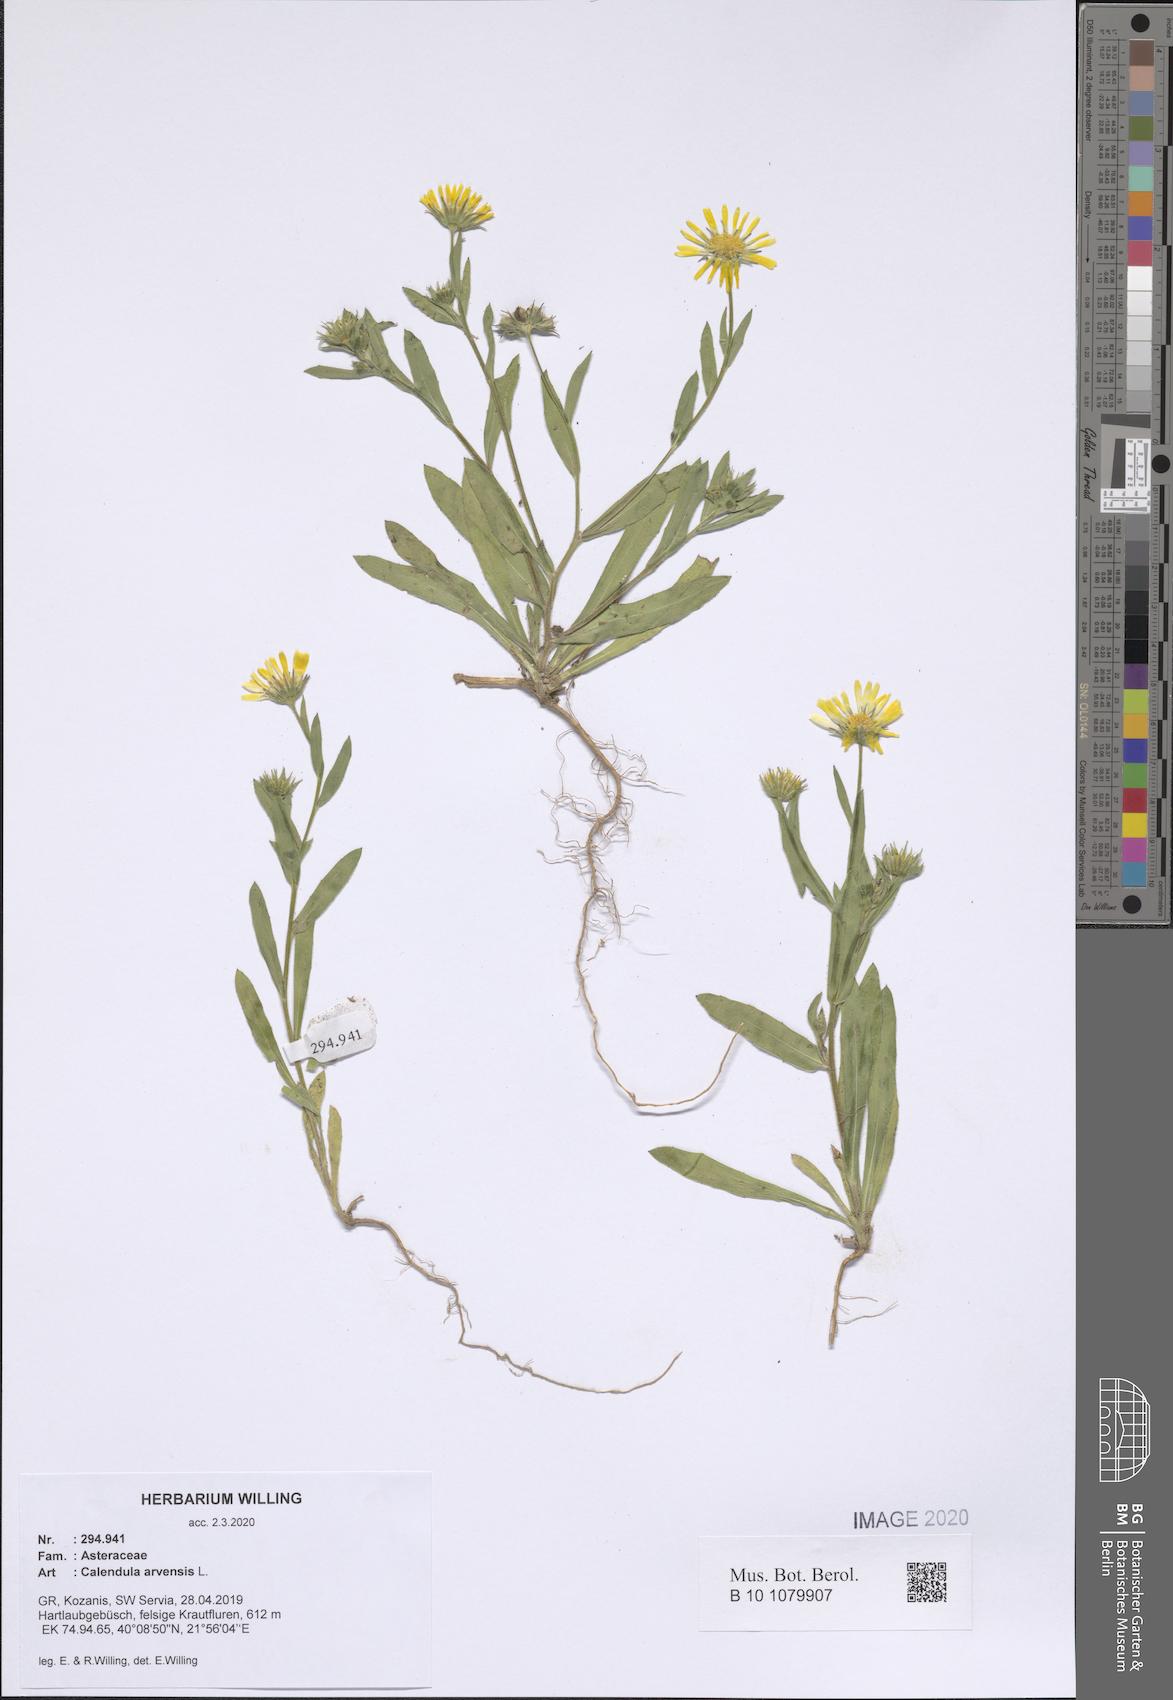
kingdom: Plantae
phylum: Tracheophyta
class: Magnoliopsida
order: Asterales
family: Asteraceae
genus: Calendula
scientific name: Calendula arvensis
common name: Field marigold
